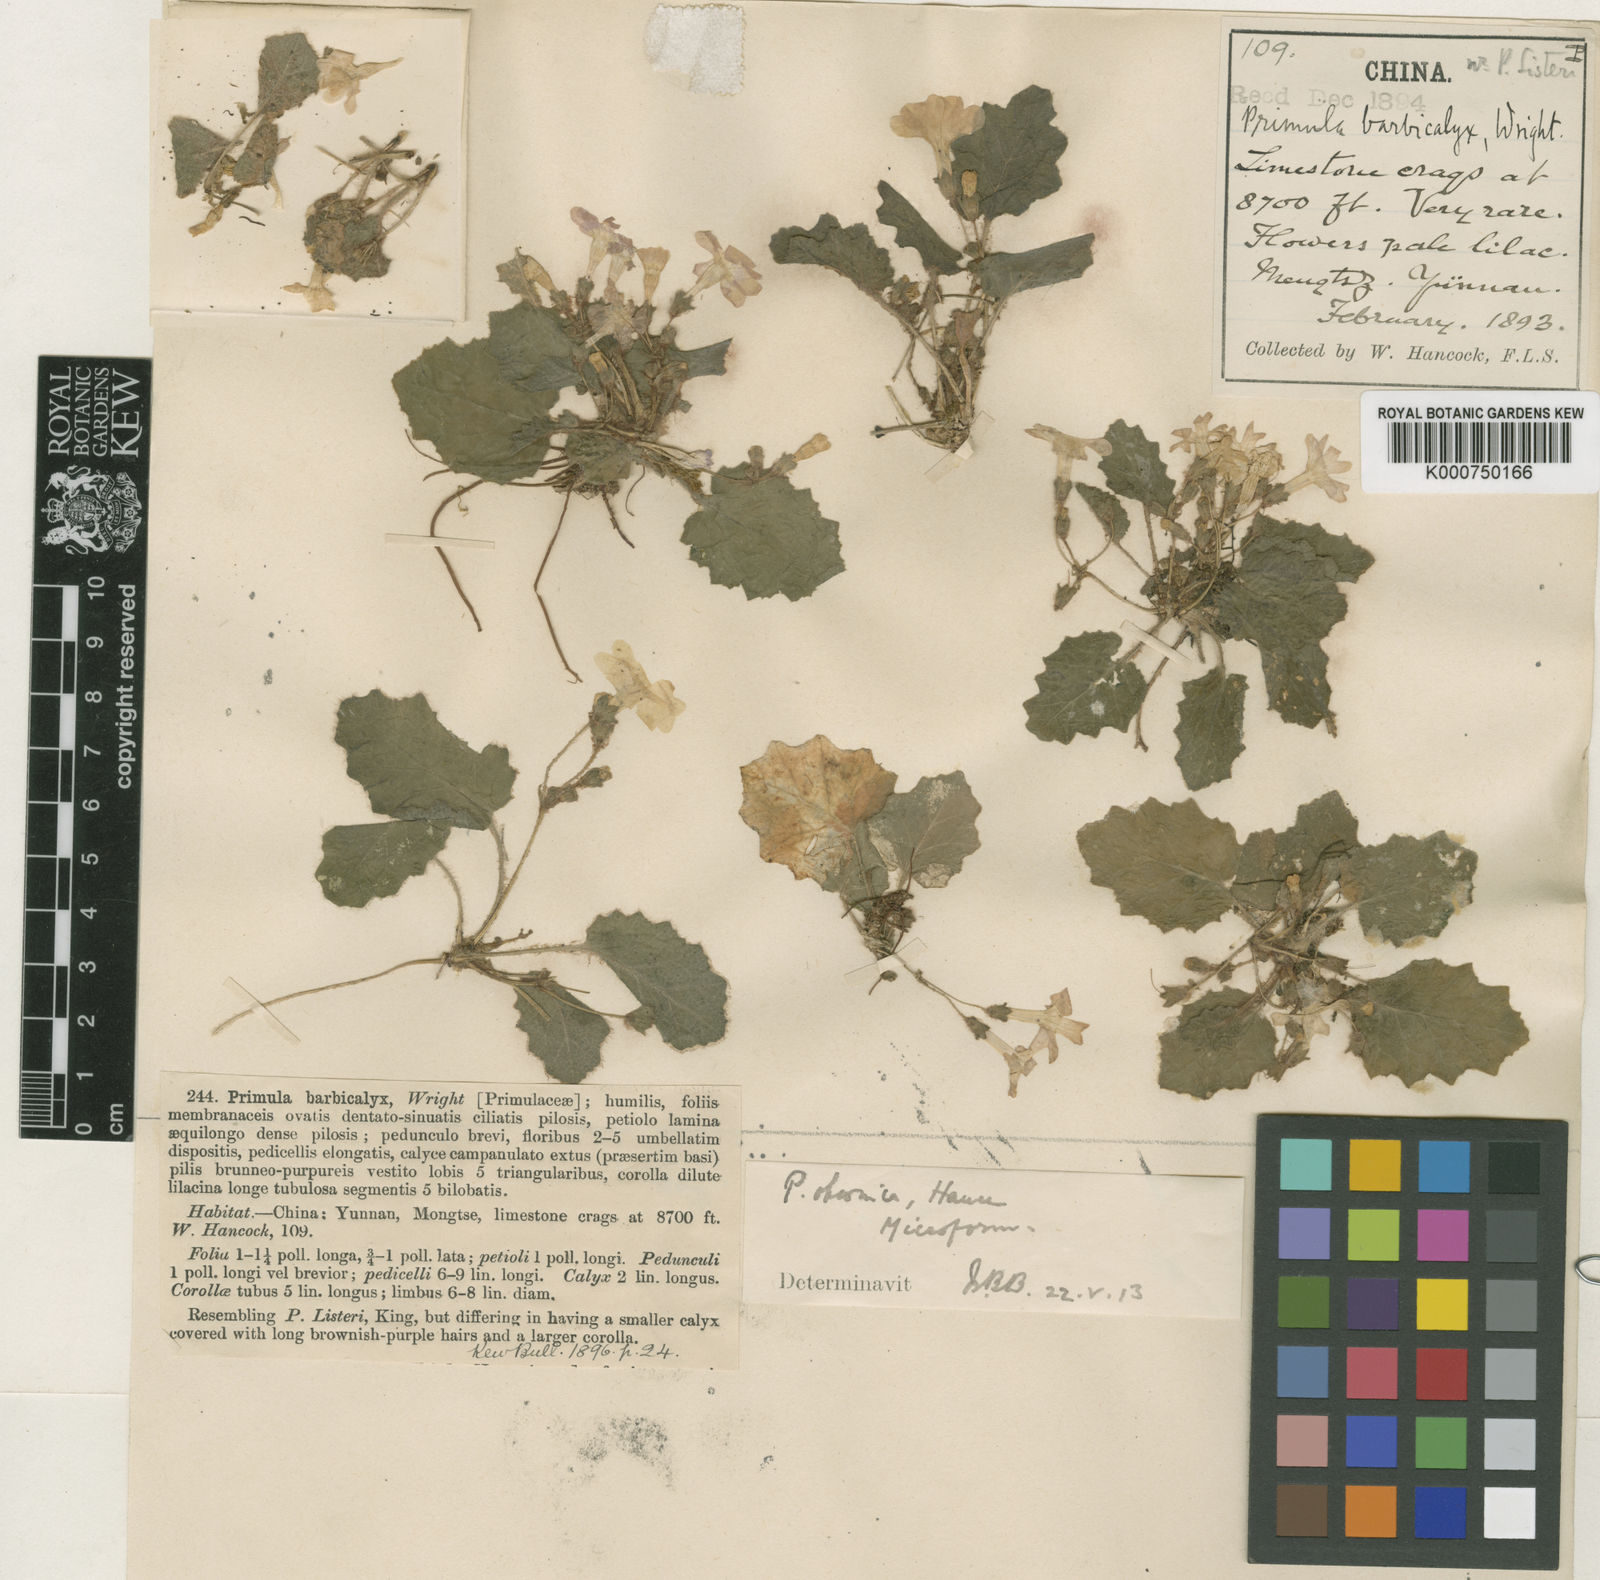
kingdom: Plantae
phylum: Tracheophyta
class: Magnoliopsida
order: Ericales
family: Primulaceae
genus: Primula
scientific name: Primula obconica
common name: German primrose
